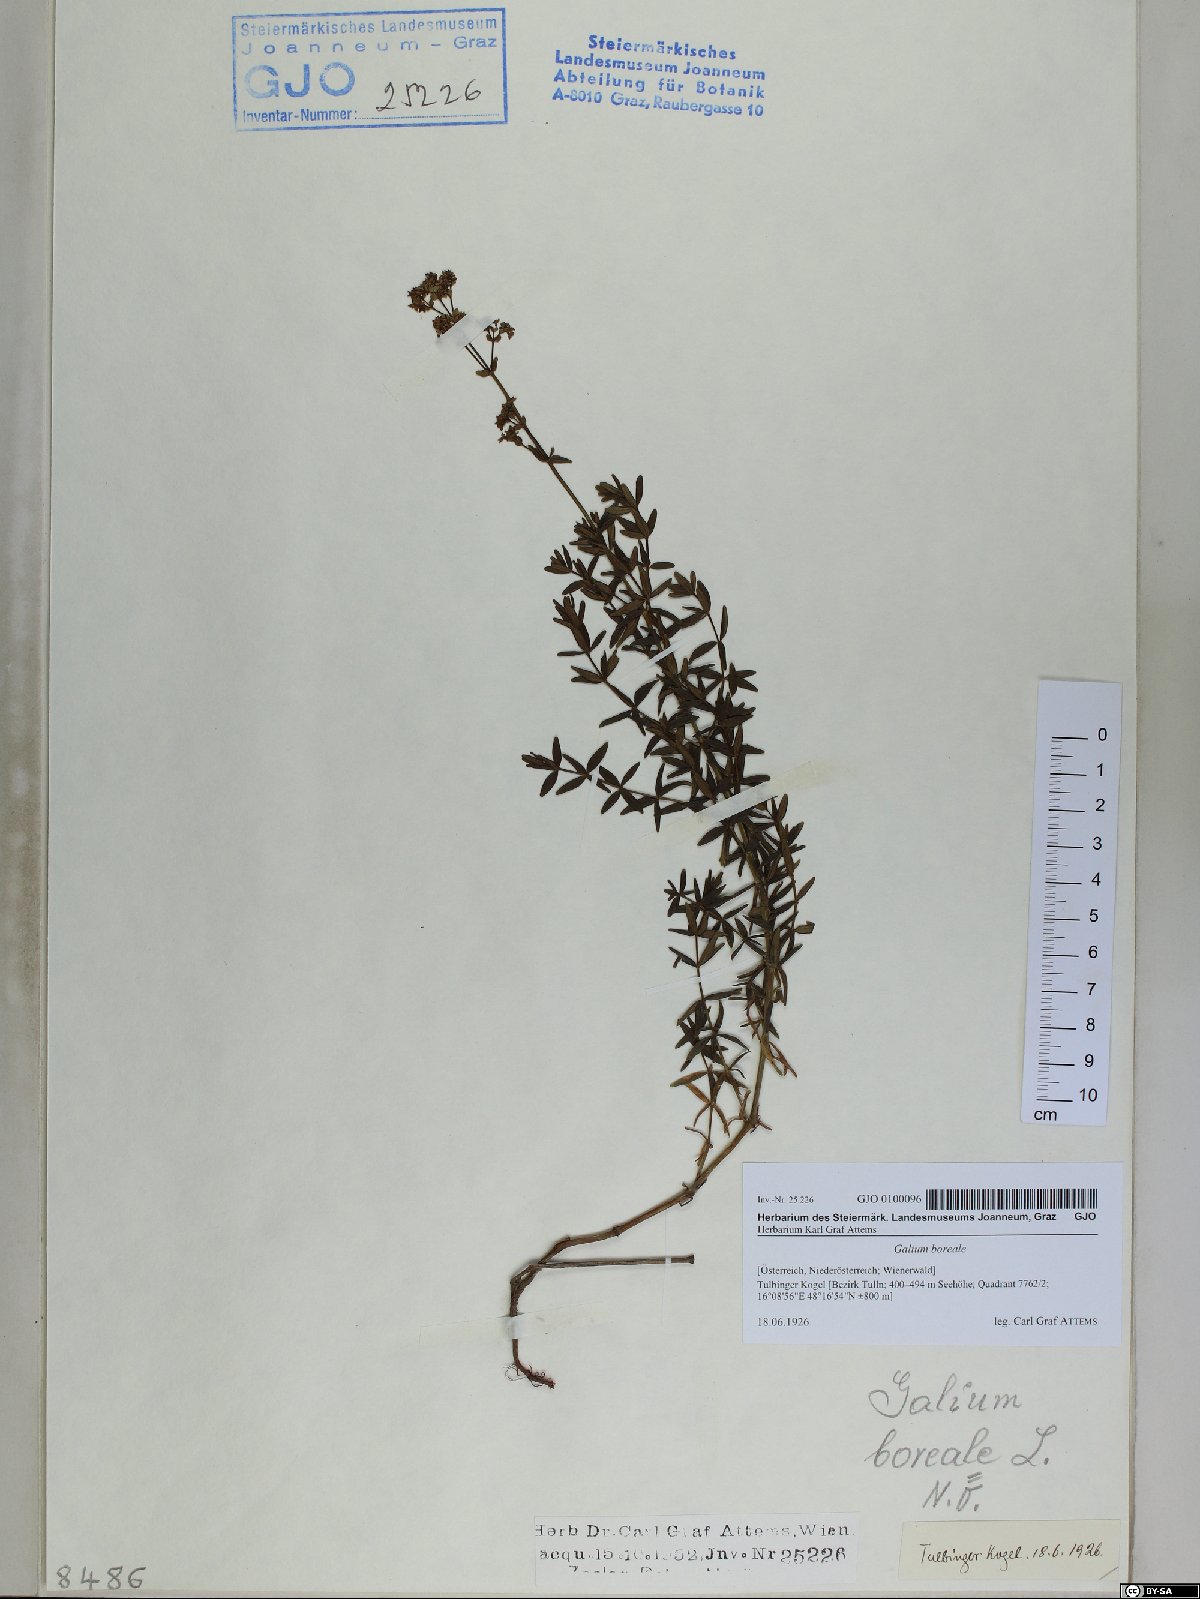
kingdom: Plantae
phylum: Tracheophyta
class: Magnoliopsida
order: Gentianales
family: Rubiaceae
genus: Galium
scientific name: Galium boreale
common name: Northern bedstraw
